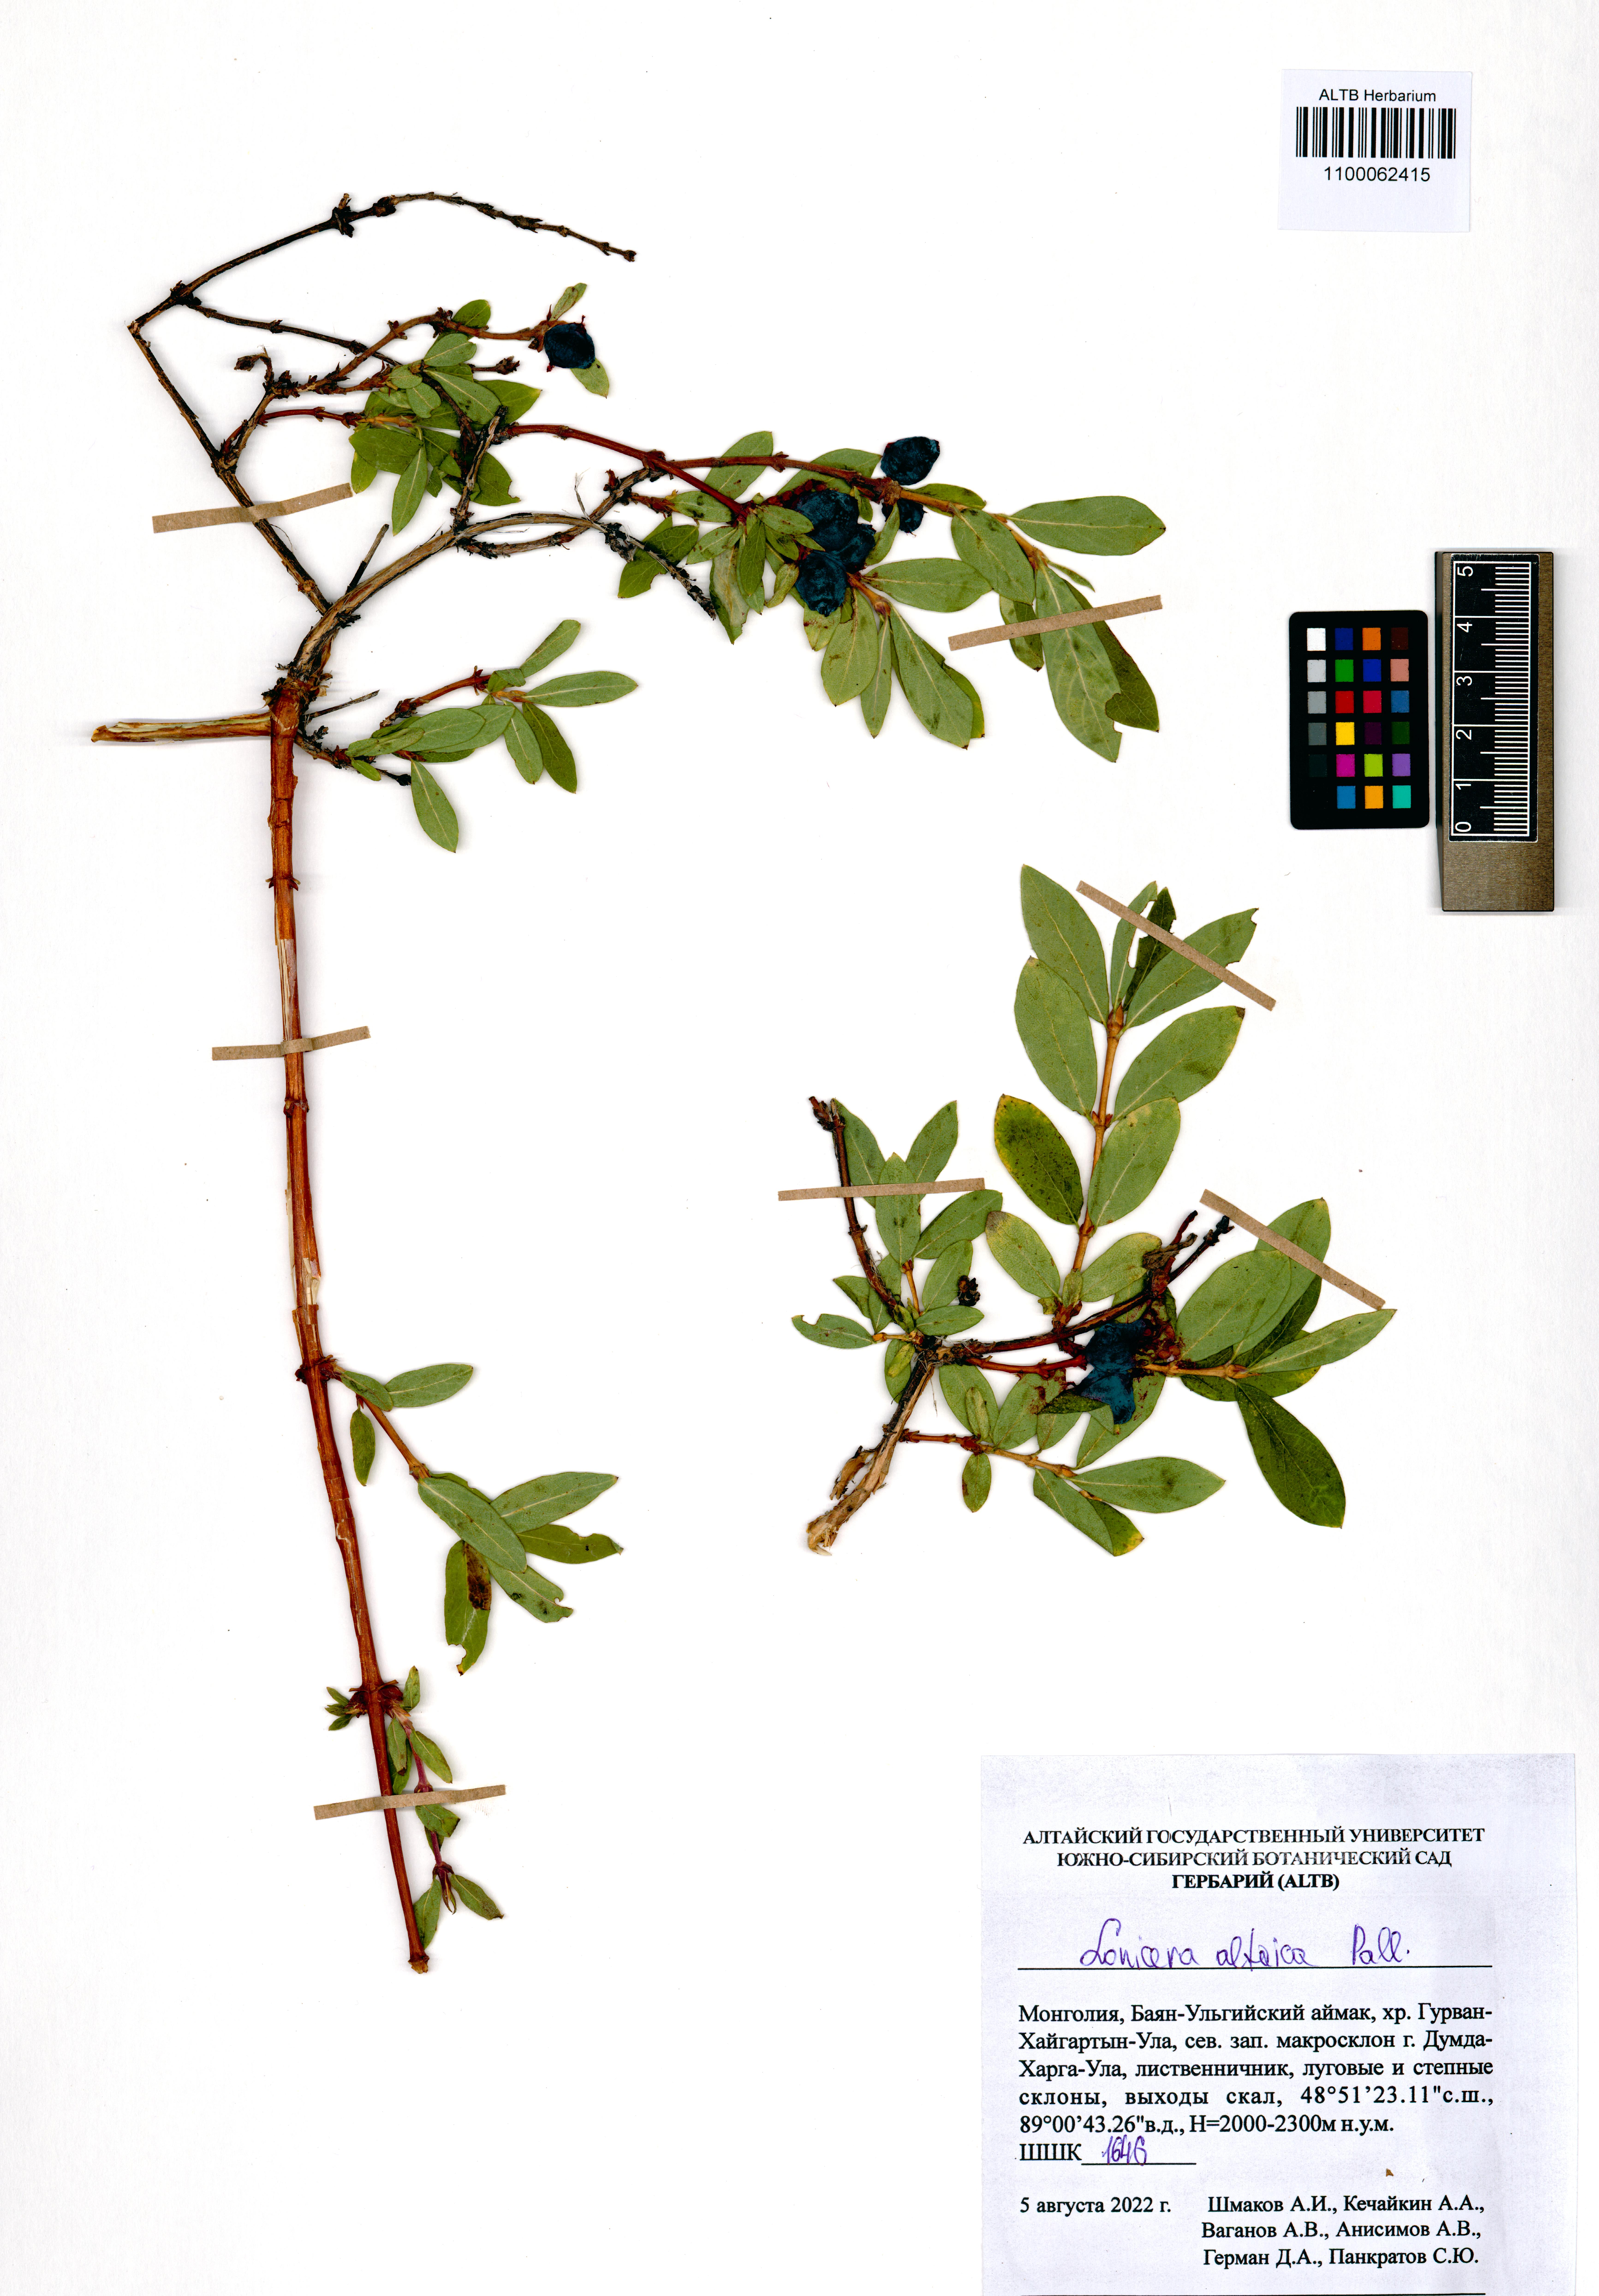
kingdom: Plantae
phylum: Tracheophyta
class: Magnoliopsida
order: Dipsacales
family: Caprifoliaceae
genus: Lonicera
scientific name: Lonicera caerulea
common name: Blue honeysuckle
